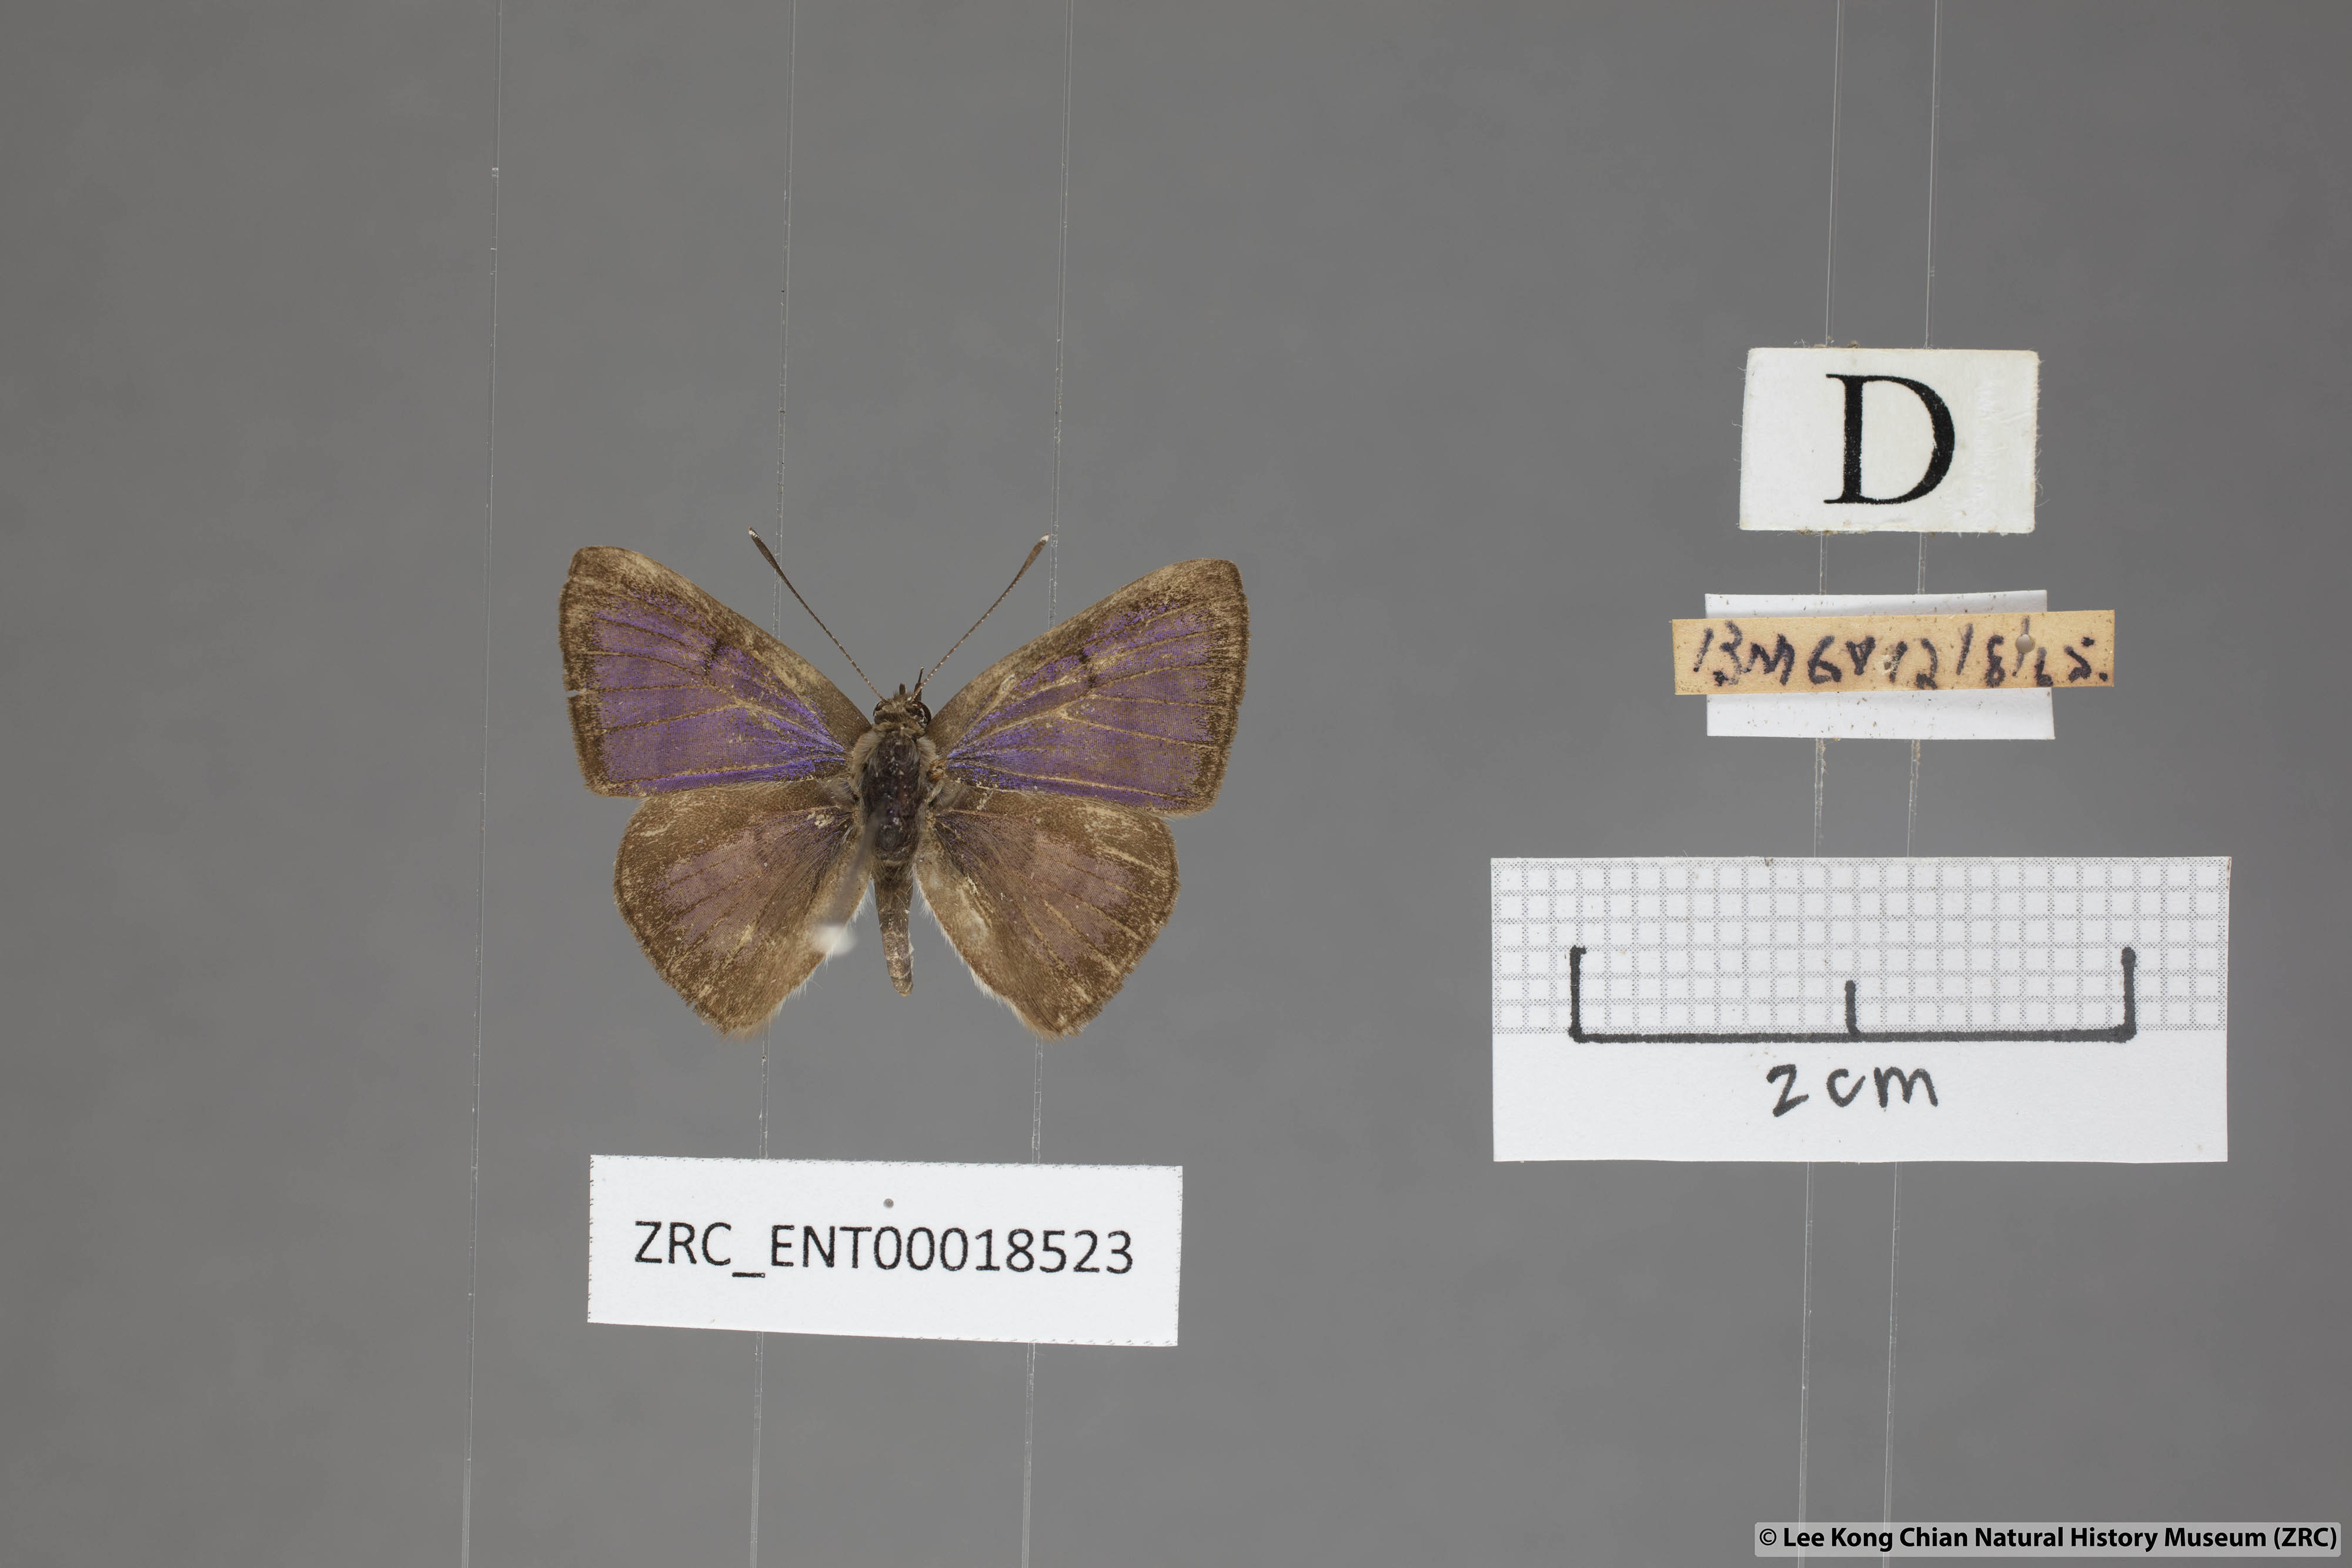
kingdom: Animalia
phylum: Arthropoda
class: Insecta
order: Lepidoptera
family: Lycaenidae
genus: Niphanda
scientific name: Niphanda cymbia
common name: Small pointed pierrot
